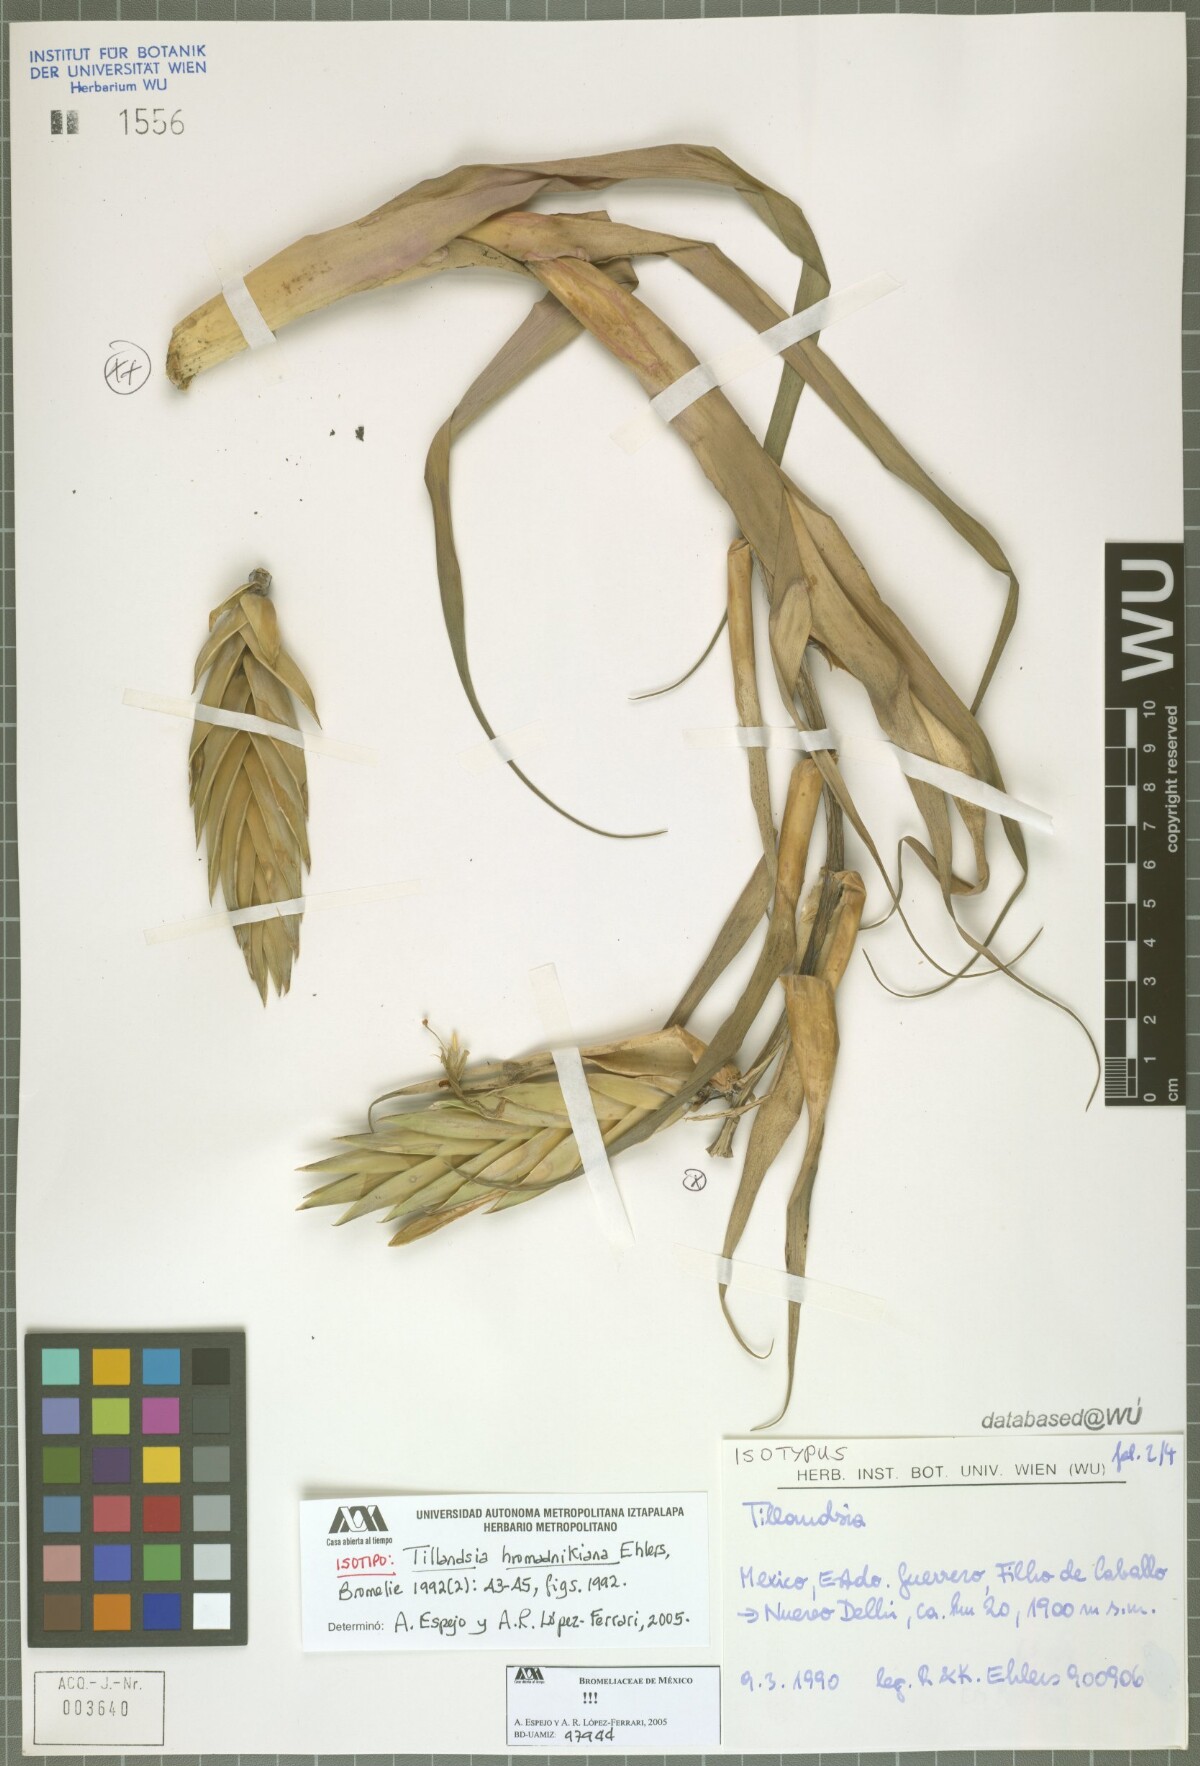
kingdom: Plantae
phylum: Tracheophyta
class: Liliopsida
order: Poales
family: Bromeliaceae
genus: Tillandsia
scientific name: Tillandsia prodigiosa
